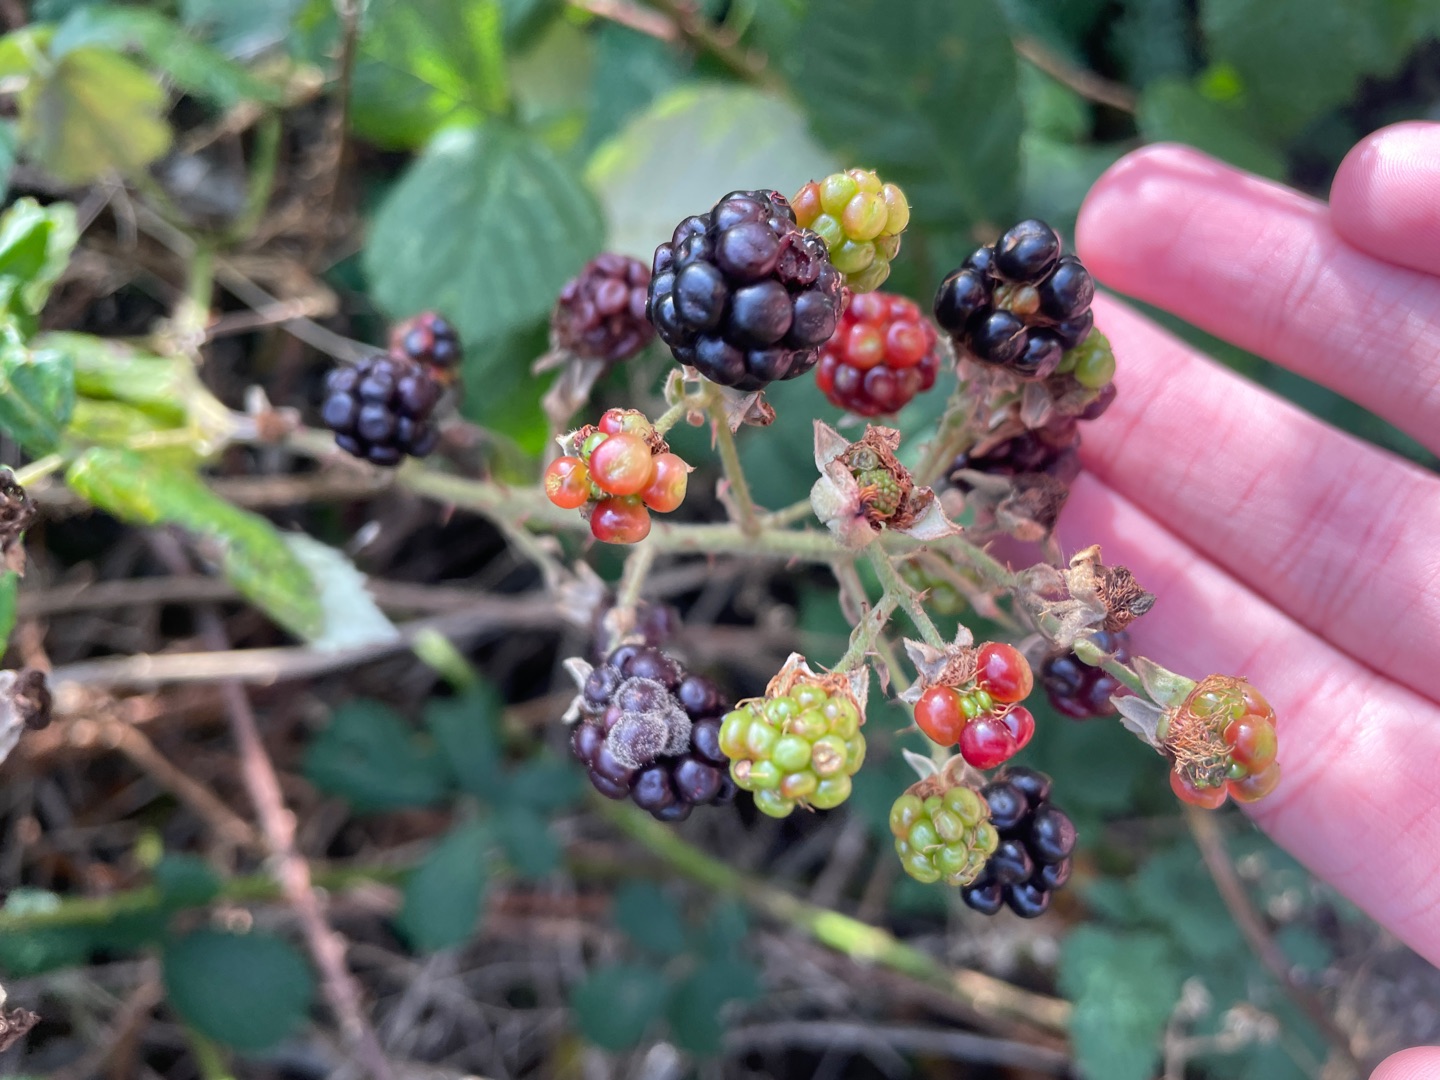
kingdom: Plantae
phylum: Tracheophyta
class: Magnoliopsida
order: Rosales
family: Rosaceae
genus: Rubus
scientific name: Rubus
